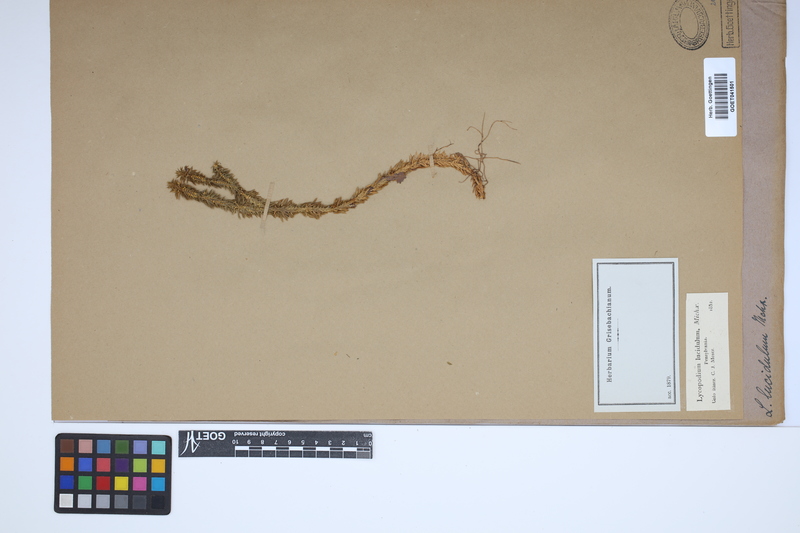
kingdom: Plantae
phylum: Tracheophyta
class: Lycopodiopsida
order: Lycopodiales
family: Lycopodiaceae
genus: Huperzia
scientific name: Huperzia lucidula
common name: Shining clubmoss
